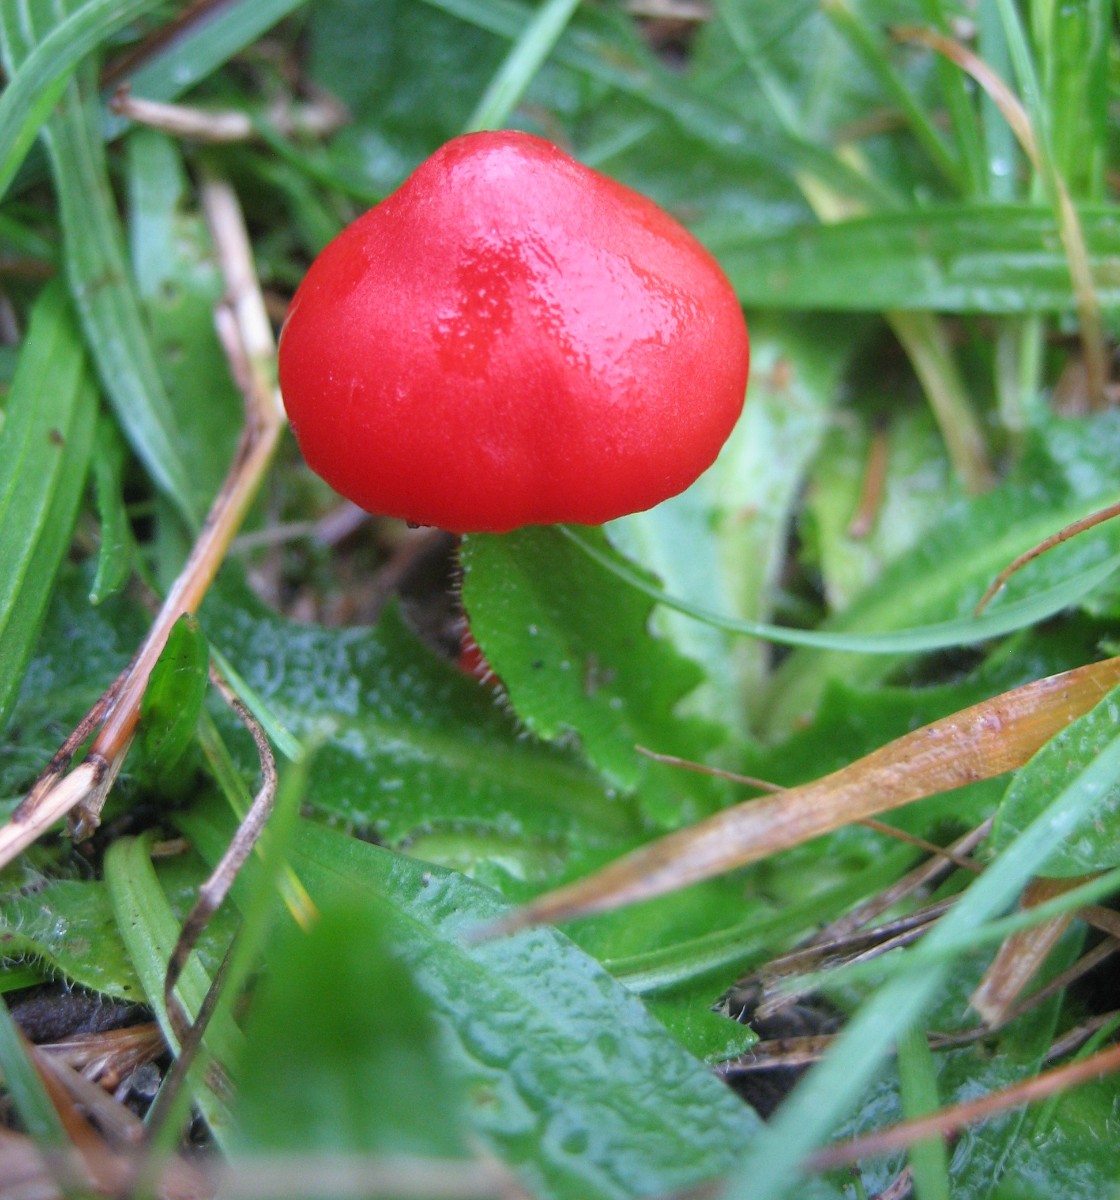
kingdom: Fungi
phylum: Basidiomycota
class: Agaricomycetes
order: Agaricales
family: Hygrophoraceae
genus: Hygrocybe
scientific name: Hygrocybe coccinea
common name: cinnober-vokshat
